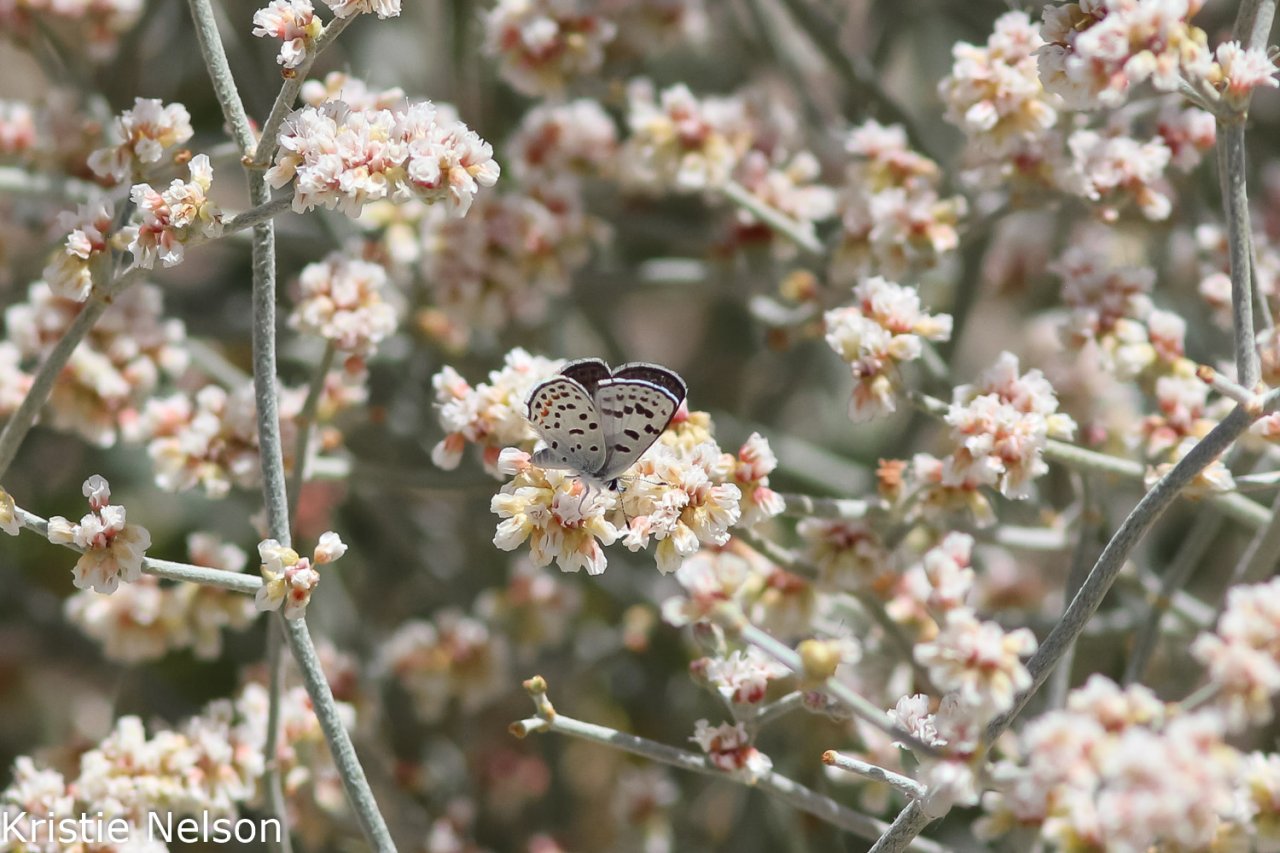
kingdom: Animalia
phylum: Arthropoda
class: Insecta
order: Lepidoptera
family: Lycaenidae
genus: Philotes
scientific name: Philotes pallescens
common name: Pallid Blue
